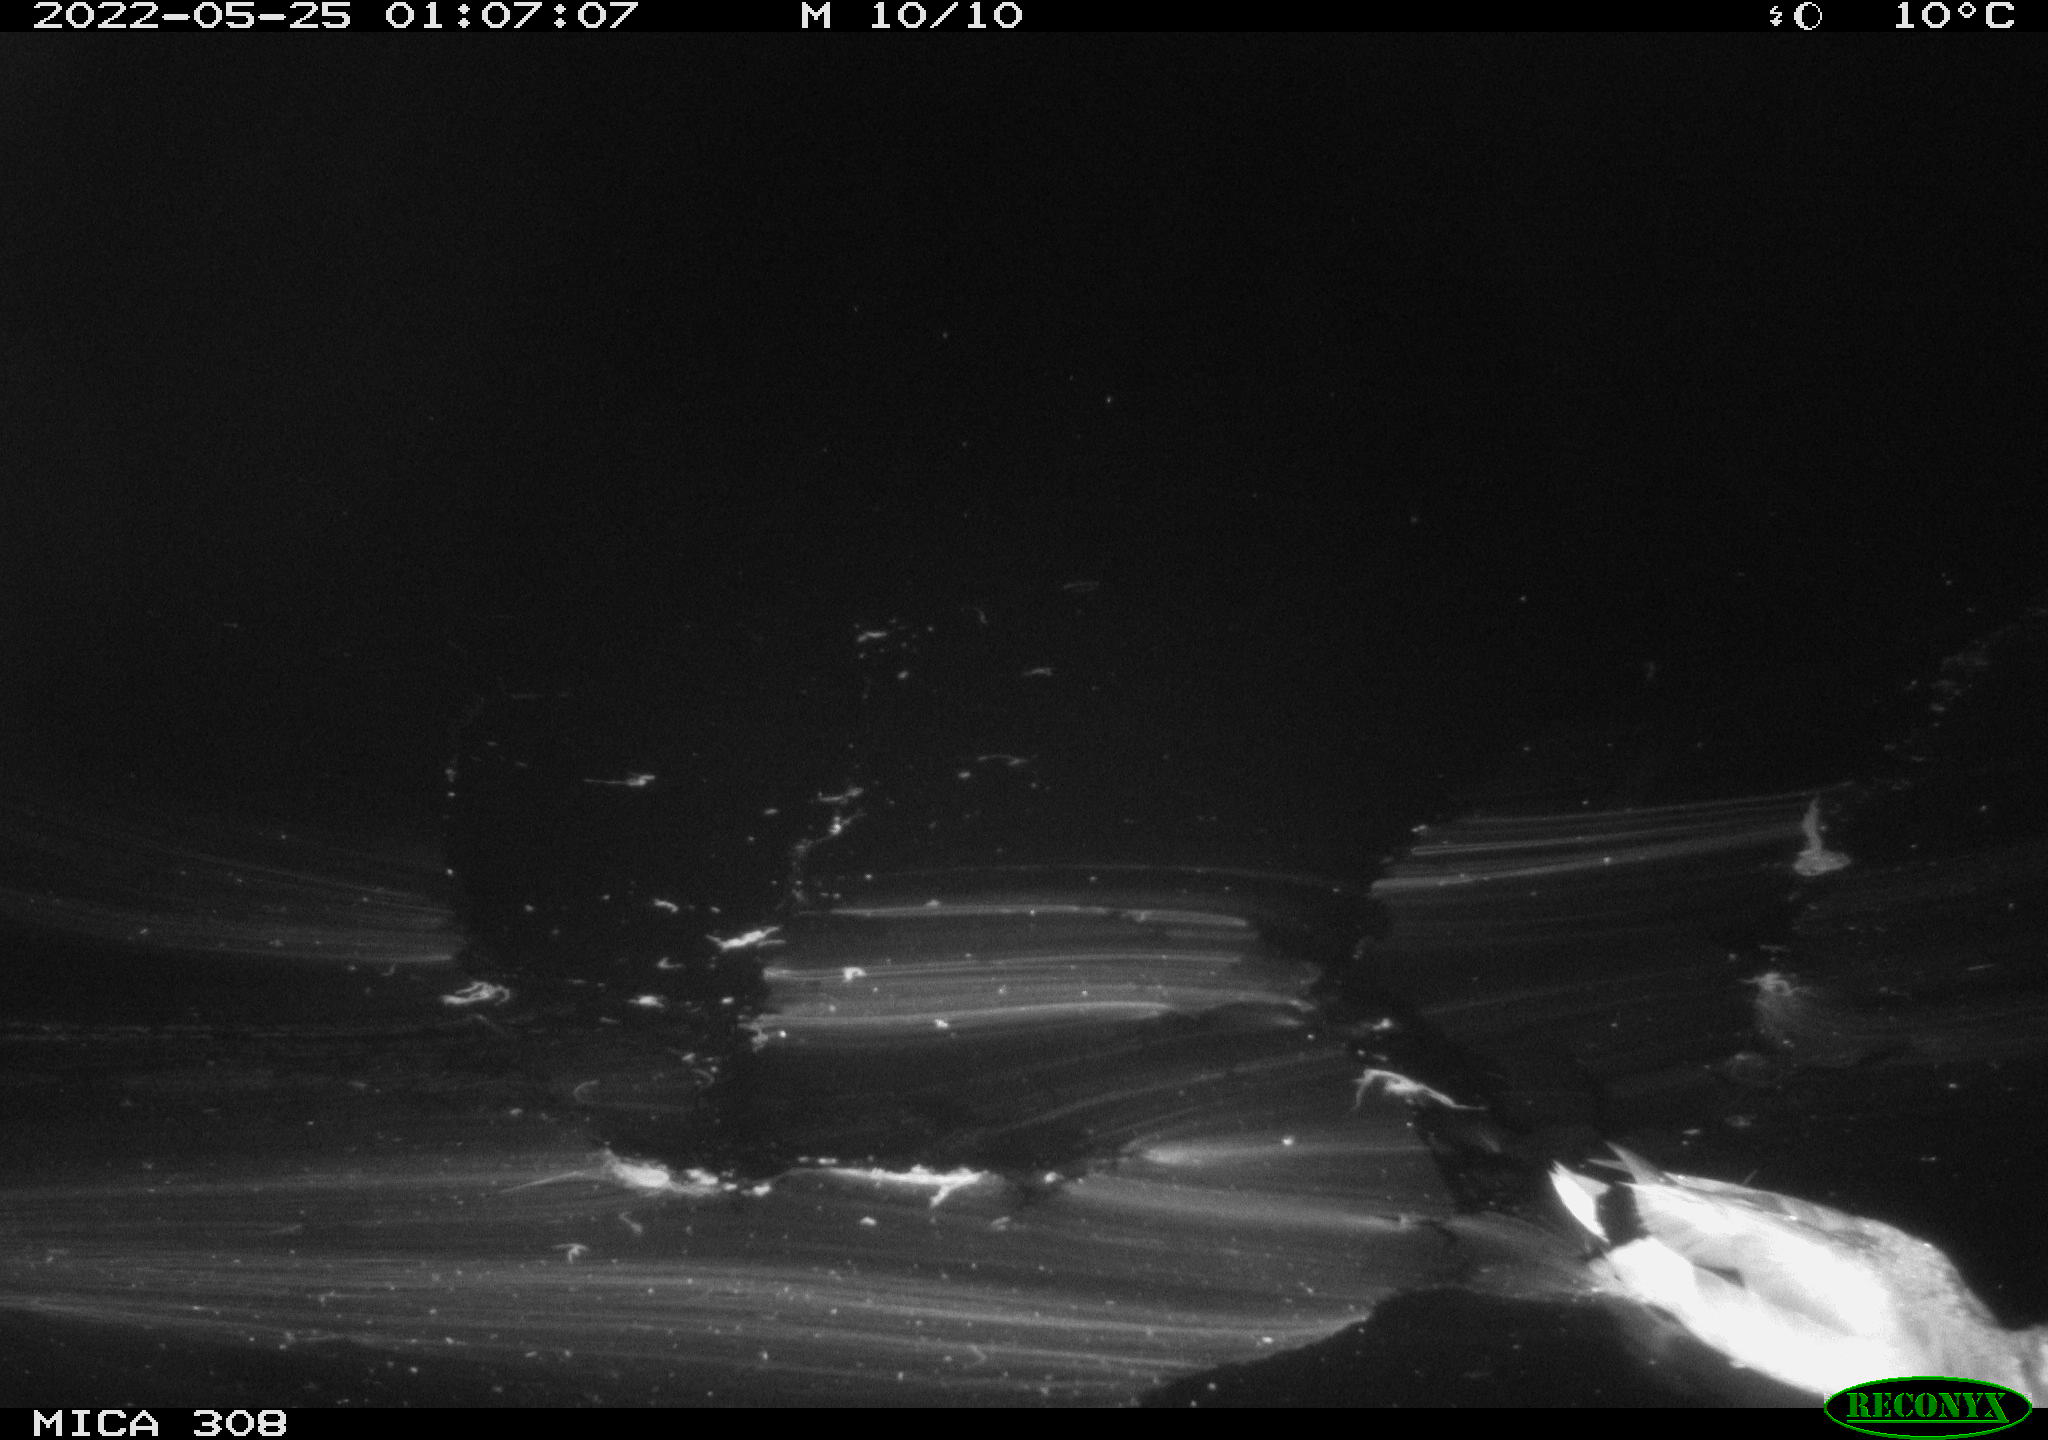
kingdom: Animalia
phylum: Chordata
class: Aves
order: Anseriformes
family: Anatidae
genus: Anas
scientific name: Anas platyrhynchos
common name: Mallard
